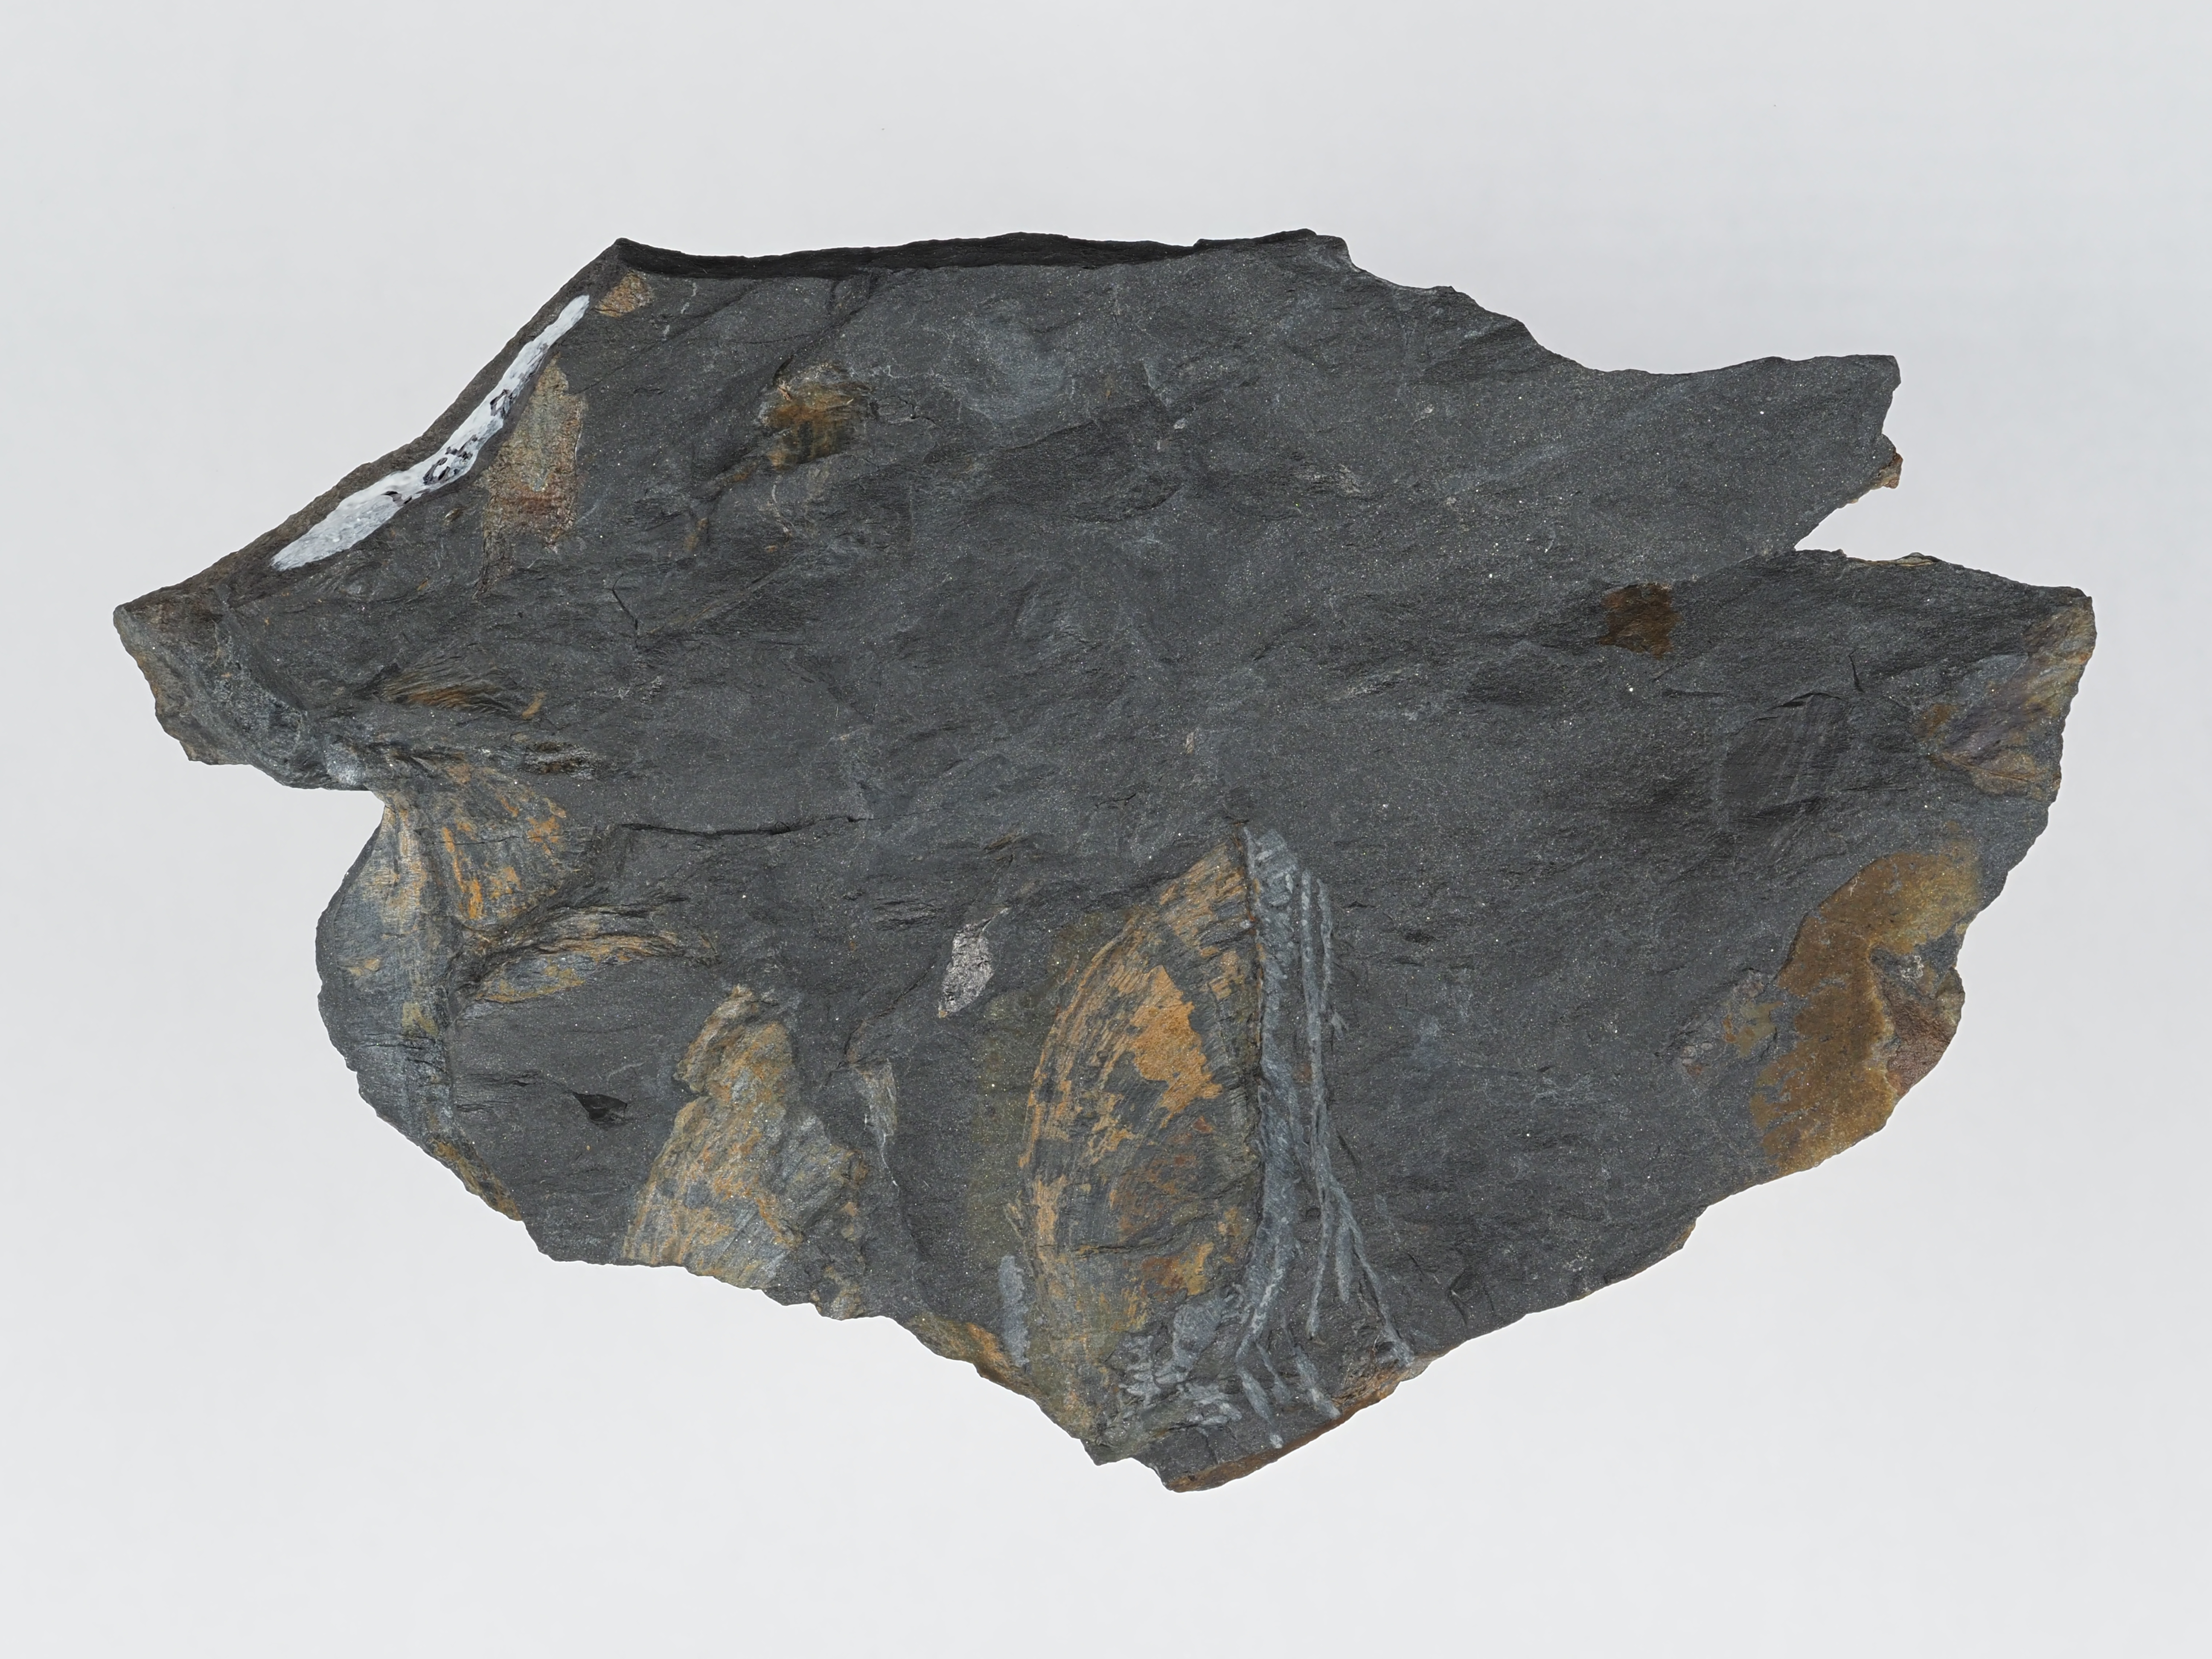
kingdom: Animalia
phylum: Mollusca
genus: Klinoptera
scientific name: Klinoptera
